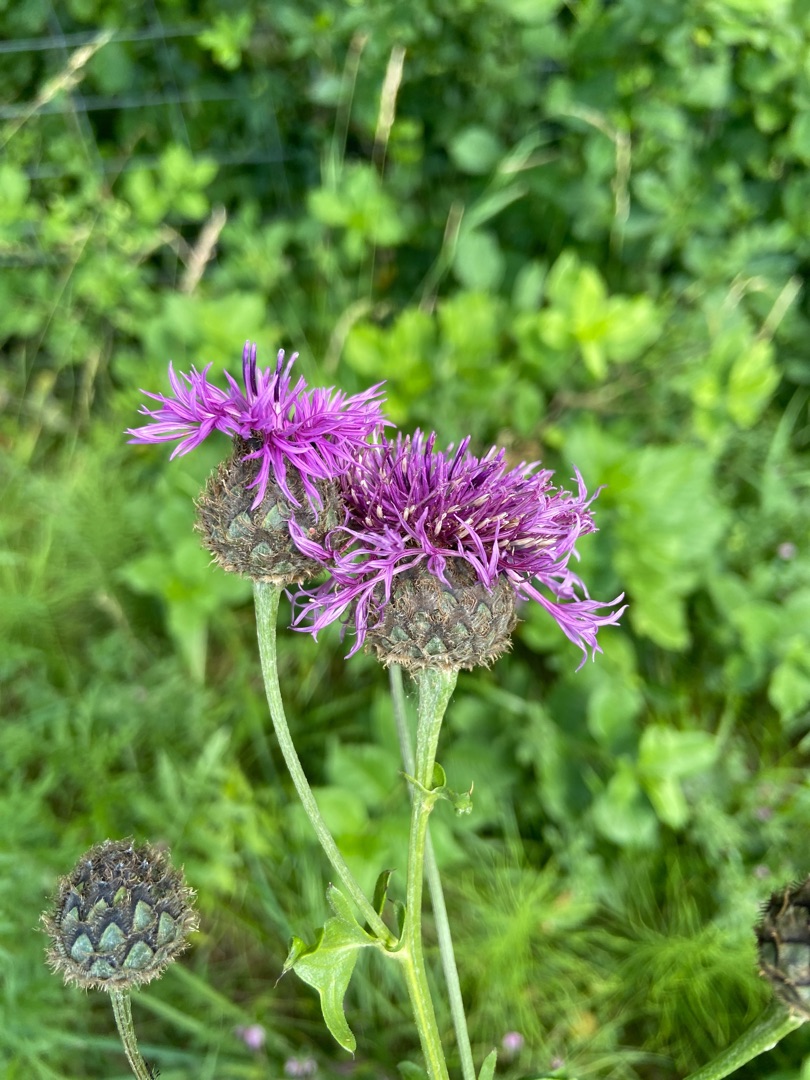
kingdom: Plantae
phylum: Tracheophyta
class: Magnoliopsida
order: Asterales
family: Asteraceae
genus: Centaurea
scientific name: Centaurea scabiosa
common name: Stor knopurt
